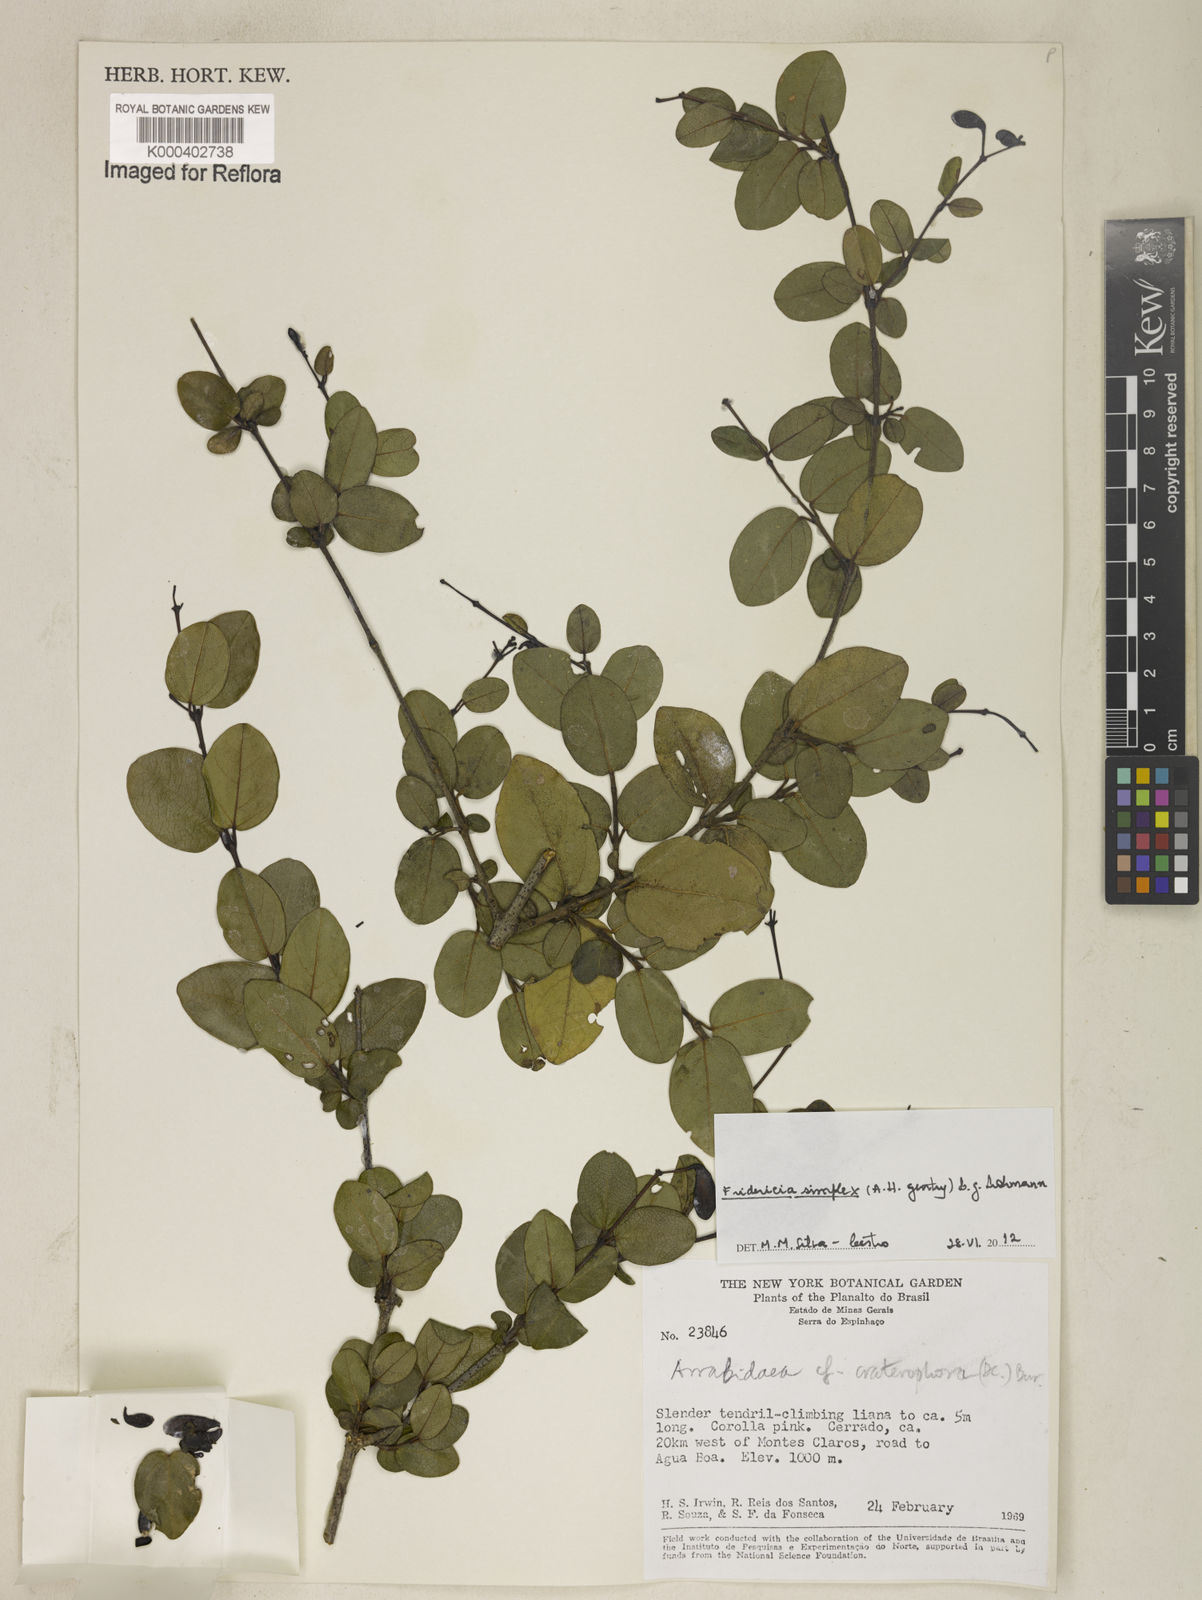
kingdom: Plantae
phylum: Tracheophyta
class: Magnoliopsida
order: Lamiales
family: Bignoniaceae
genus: Fridericia
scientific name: Fridericia simplex
